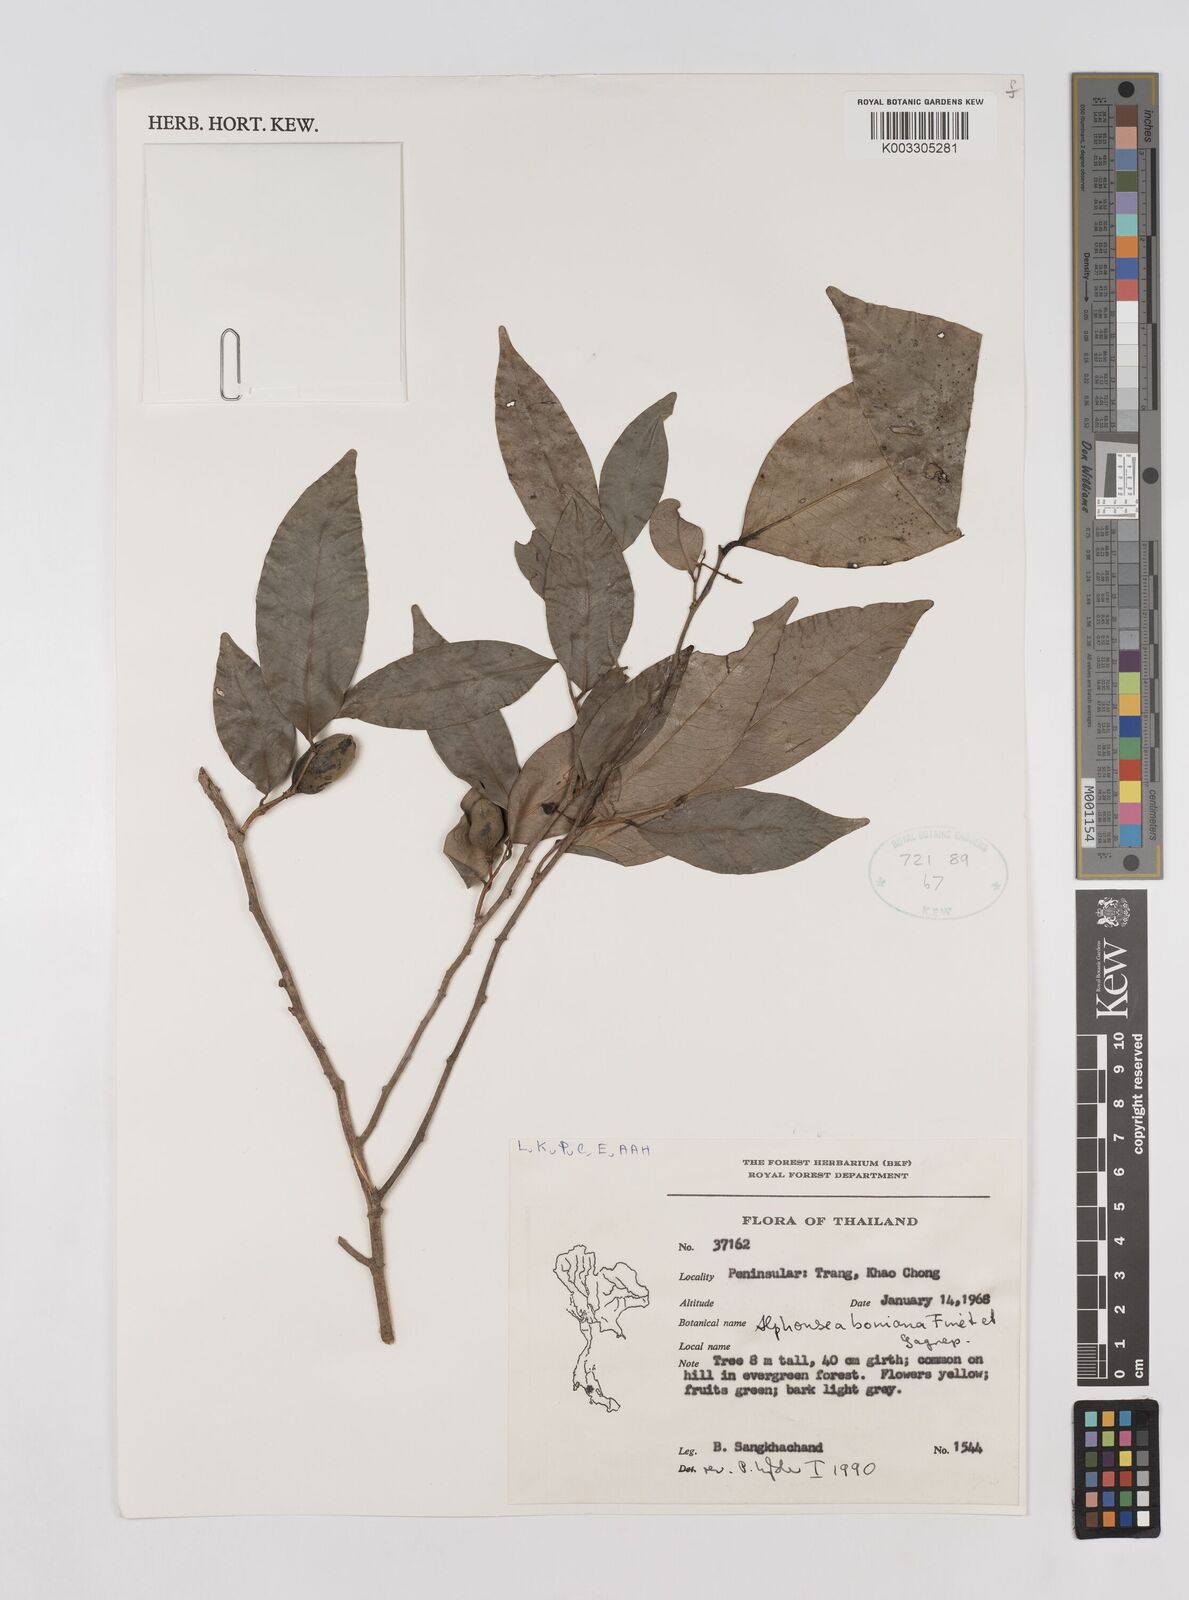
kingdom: Plantae
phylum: Tracheophyta
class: Magnoliopsida
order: Magnoliales
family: Annonaceae
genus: Alphonsea
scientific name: Alphonsea boniana
